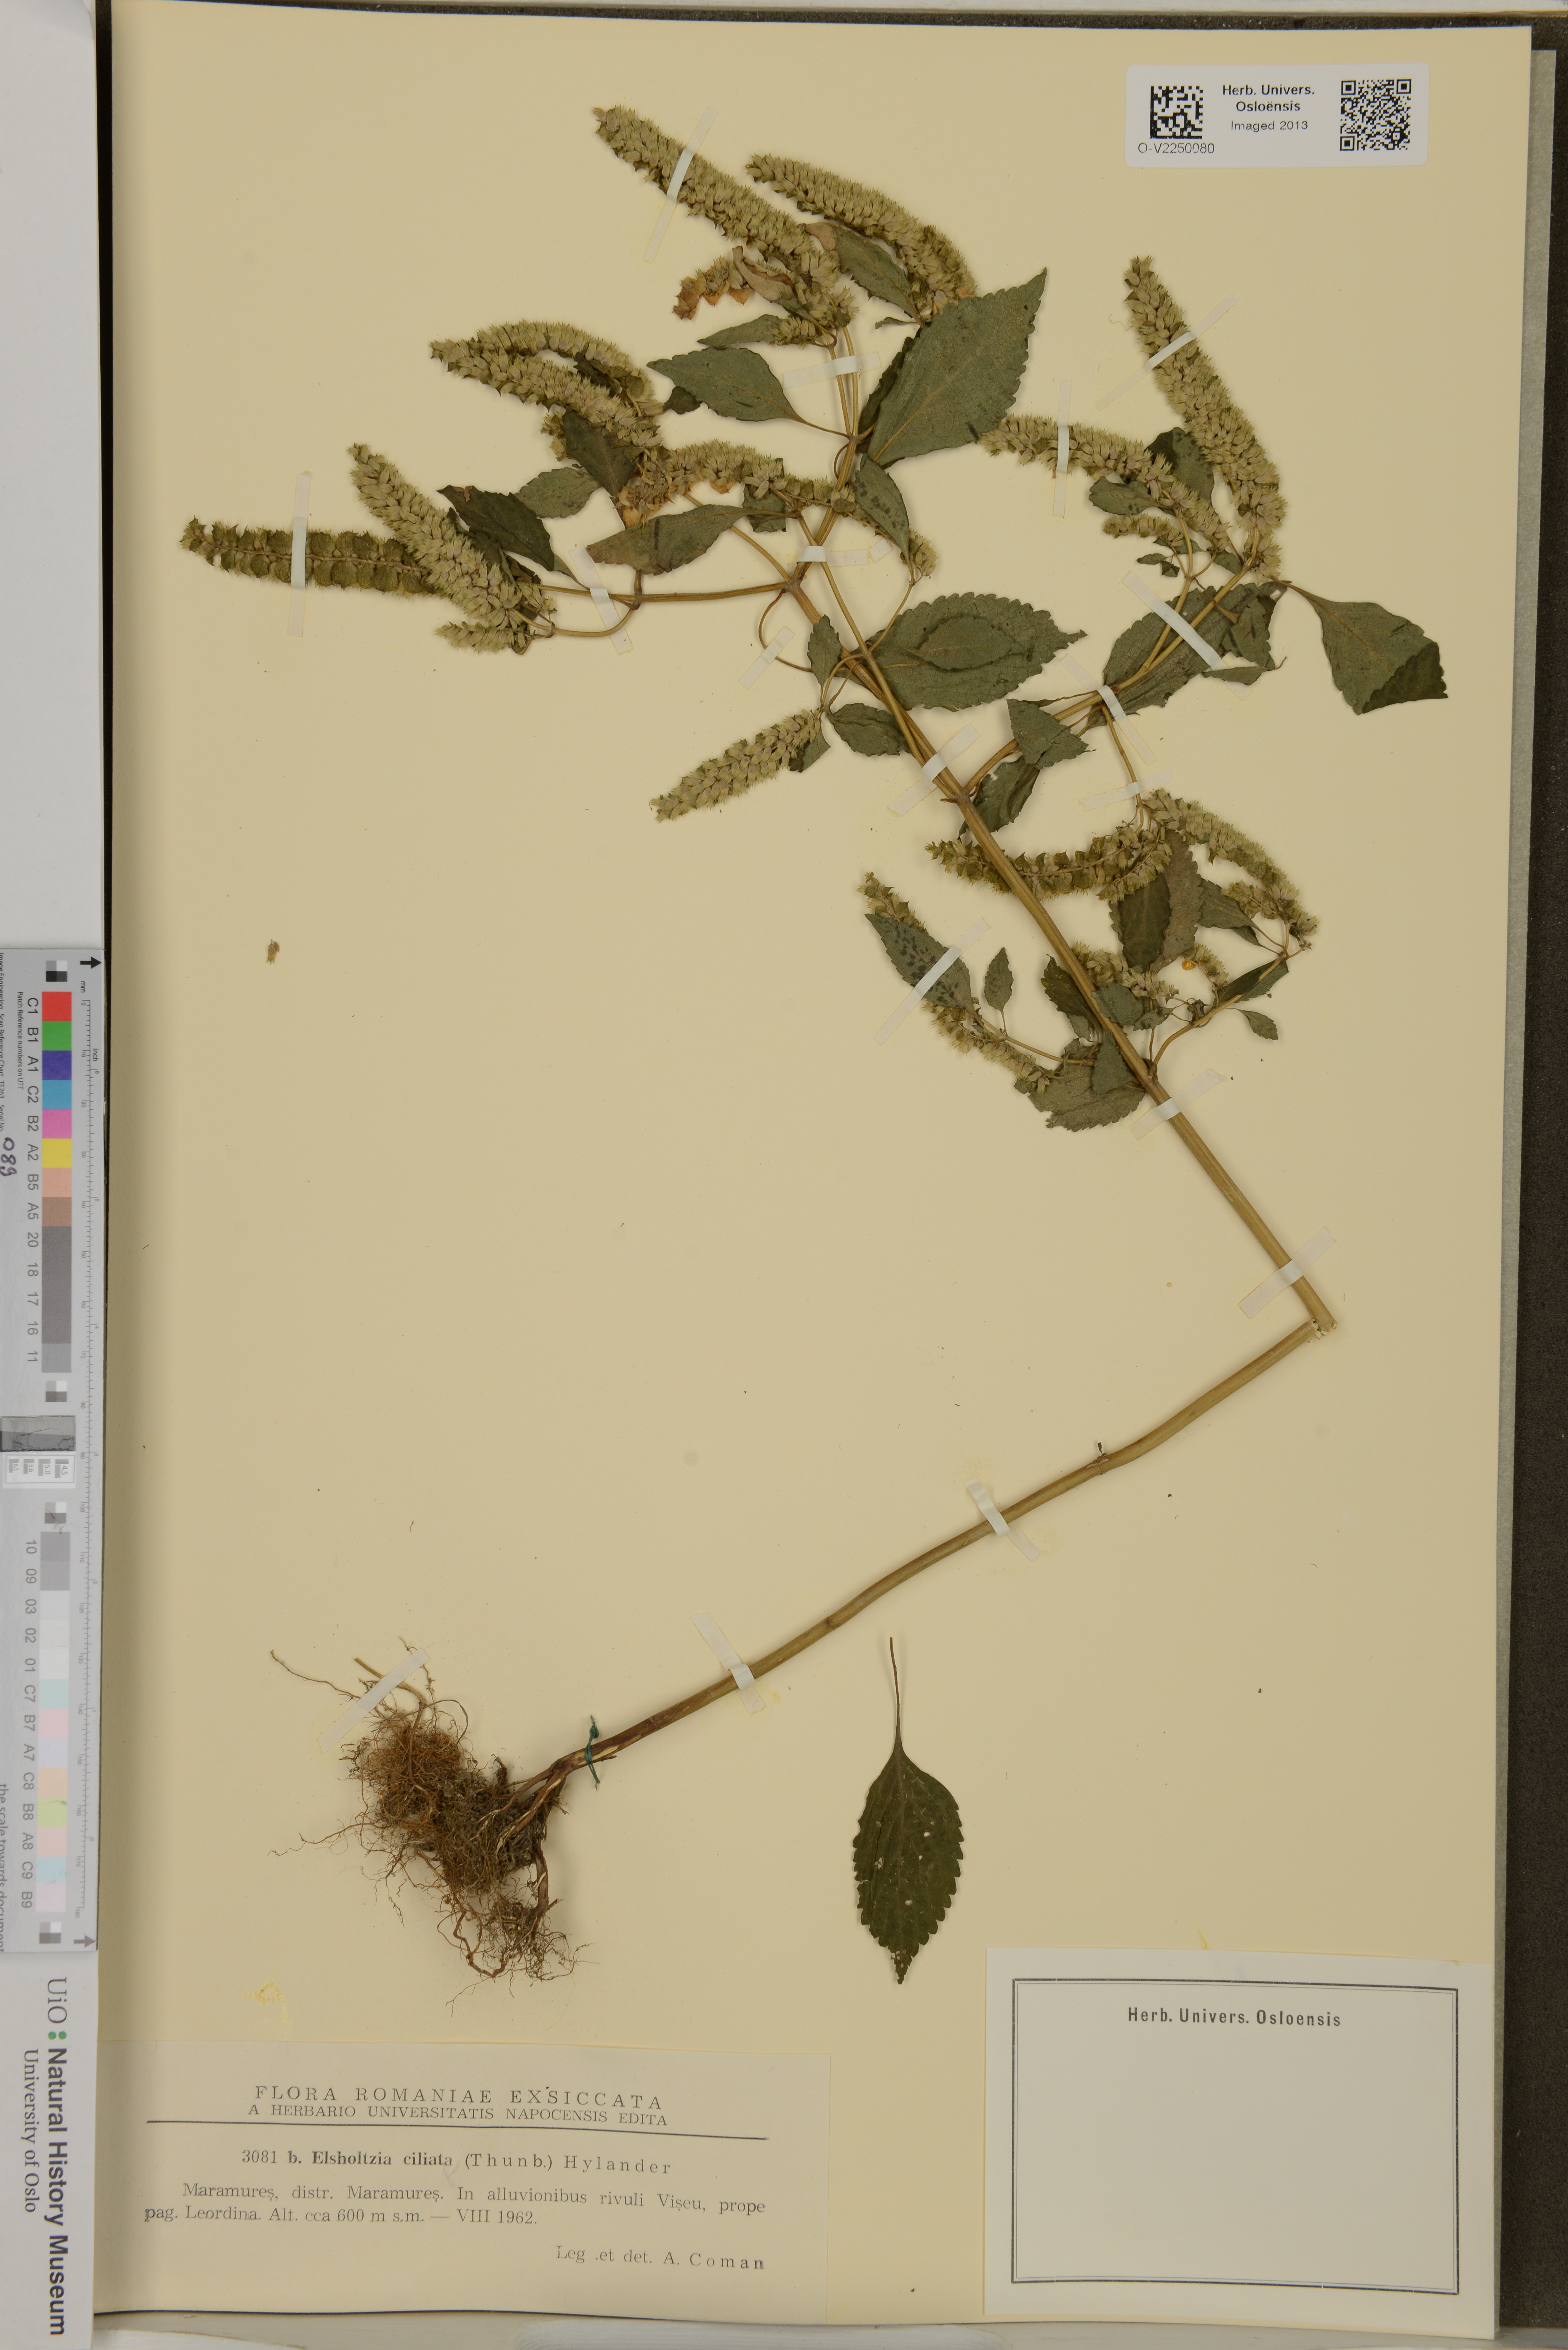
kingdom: Plantae
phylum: Tracheophyta
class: Magnoliopsida
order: Lamiales
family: Lamiaceae
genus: Elsholtzia
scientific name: Elsholtzia ciliata
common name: Ciliate elsholtzia
